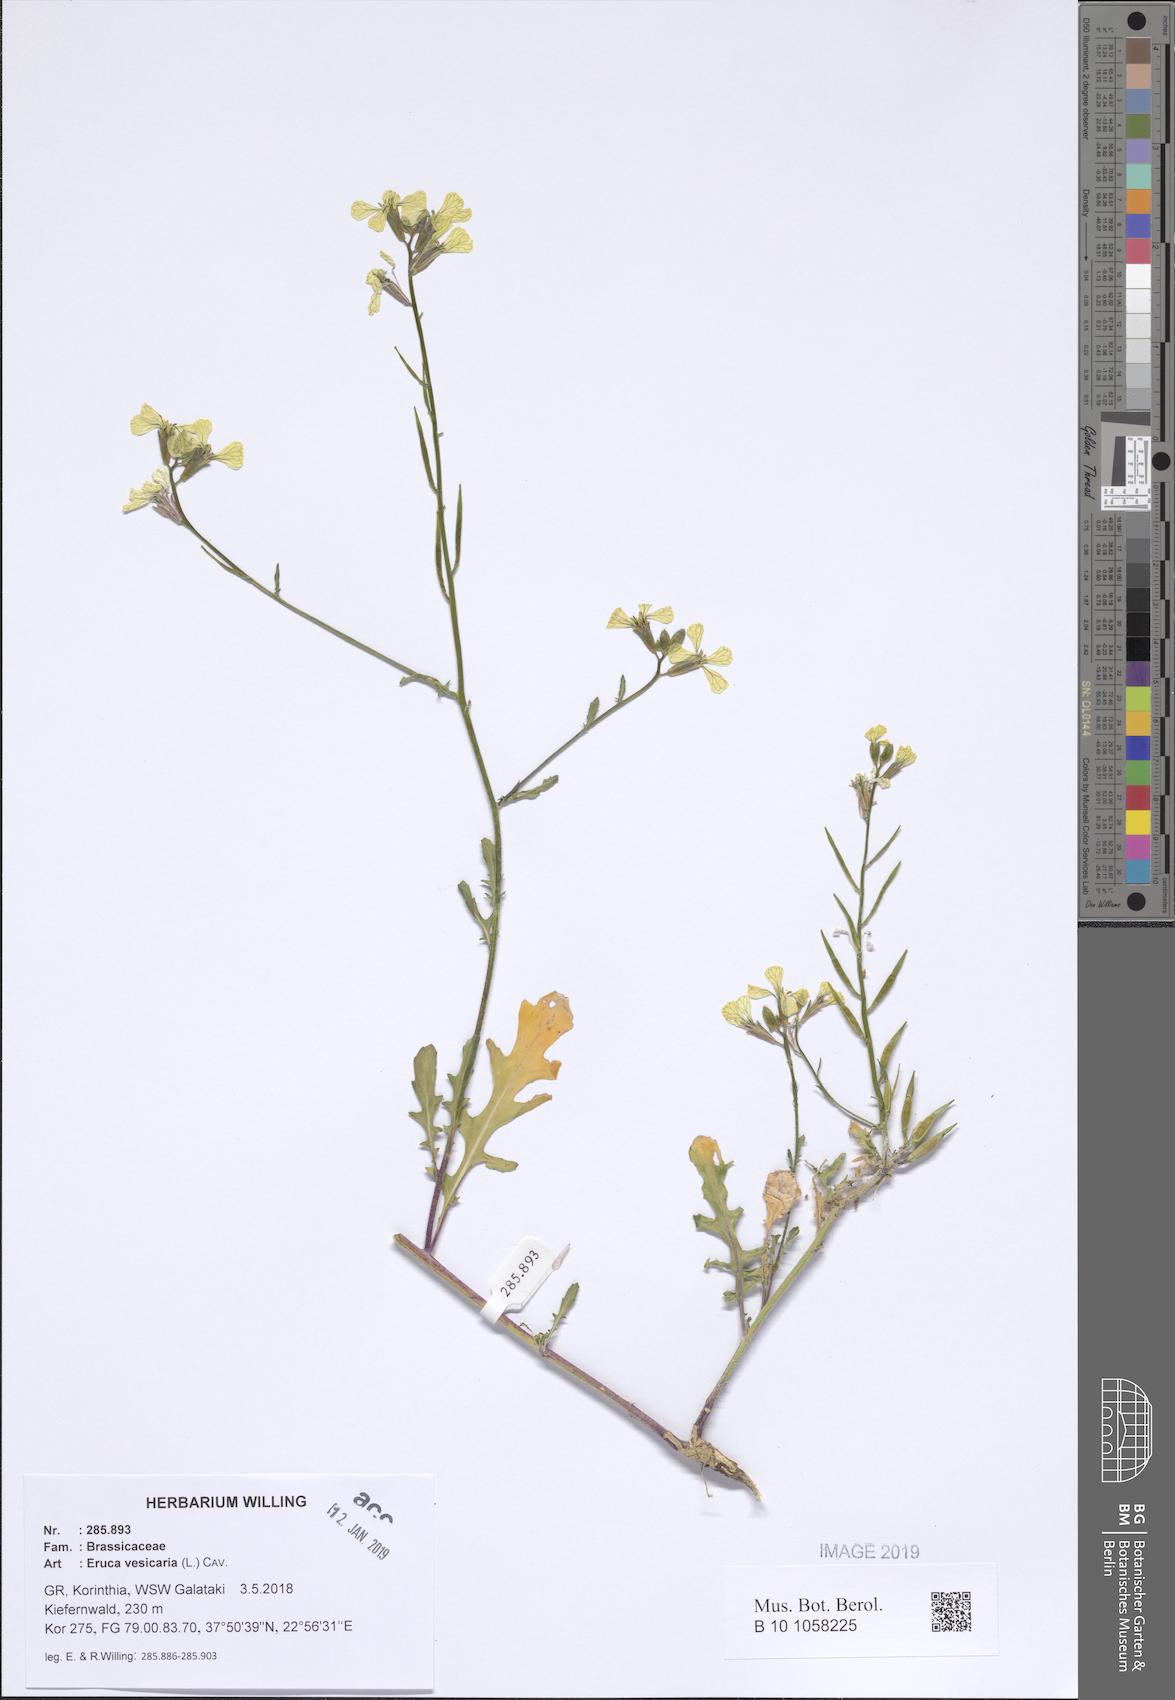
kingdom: Plantae
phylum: Tracheophyta
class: Magnoliopsida
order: Brassicales
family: Brassicaceae
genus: Eruca
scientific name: Eruca vesicaria
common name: Garden rocket
